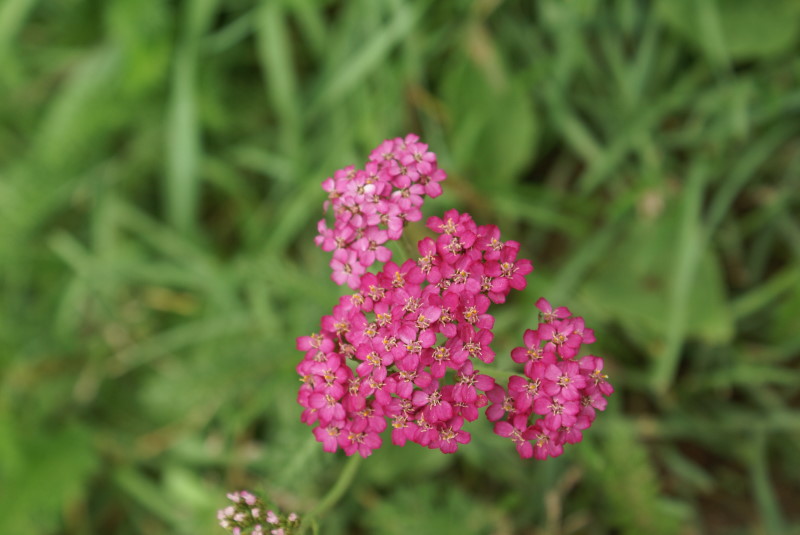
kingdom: Plantae
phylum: Tracheophyta
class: Magnoliopsida
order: Asterales
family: Asteraceae
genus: Achillea
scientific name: Achillea millefolium
